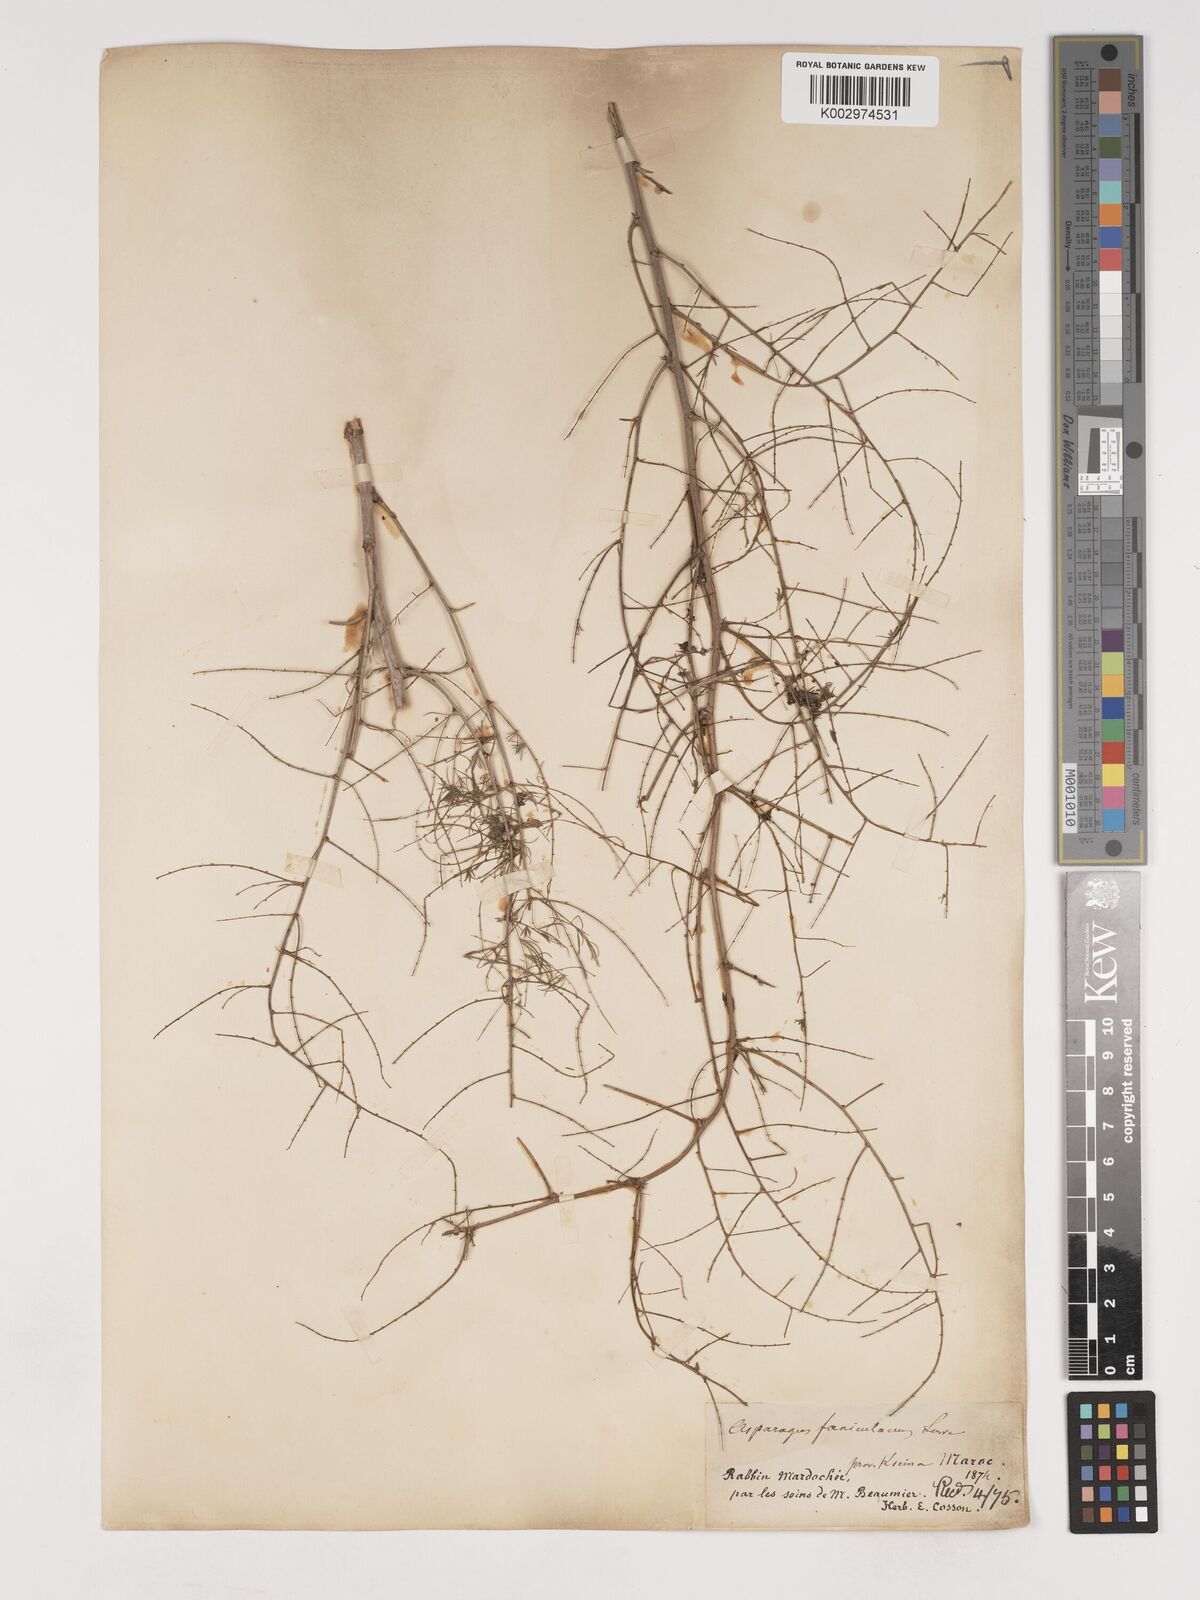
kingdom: Plantae
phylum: Tracheophyta
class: Liliopsida
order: Asparagales
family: Asparagaceae
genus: Asparagus
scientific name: Asparagus altissimus
